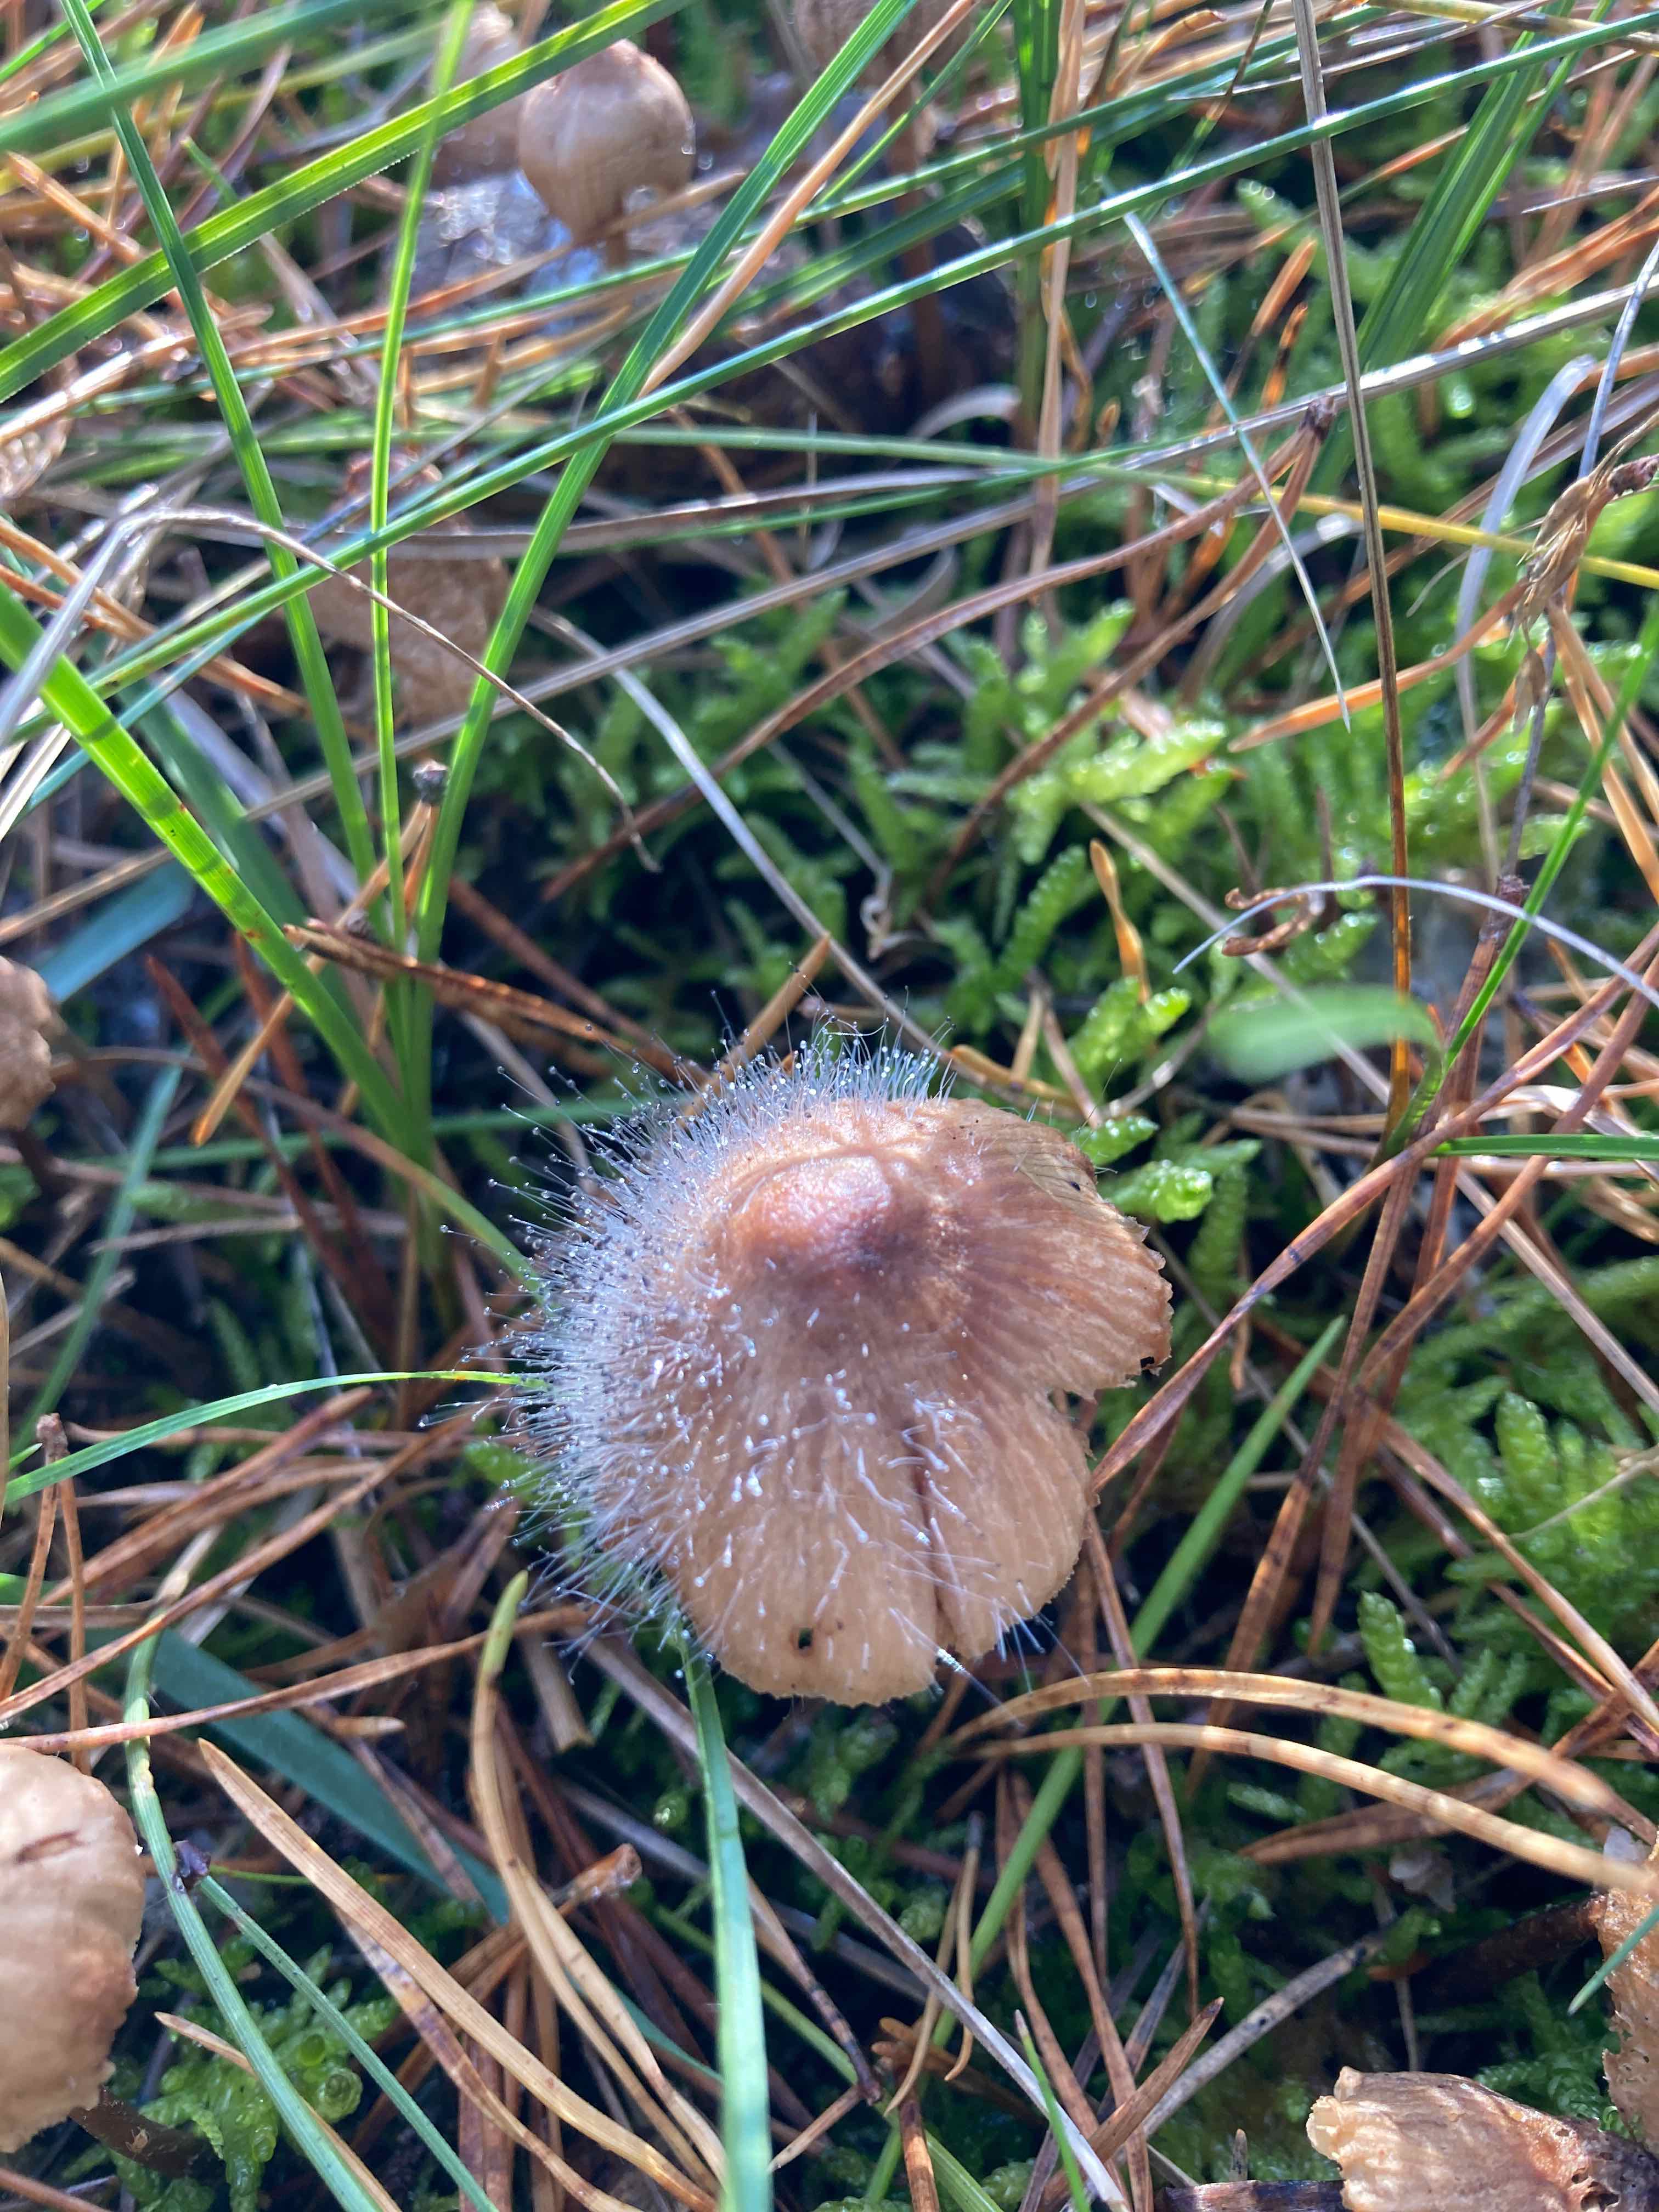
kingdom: Fungi
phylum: Mucoromycota
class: Mucoromycetes
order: Mucorales
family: Phycomycetaceae
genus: Spinellus
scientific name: Spinellus fusiger
